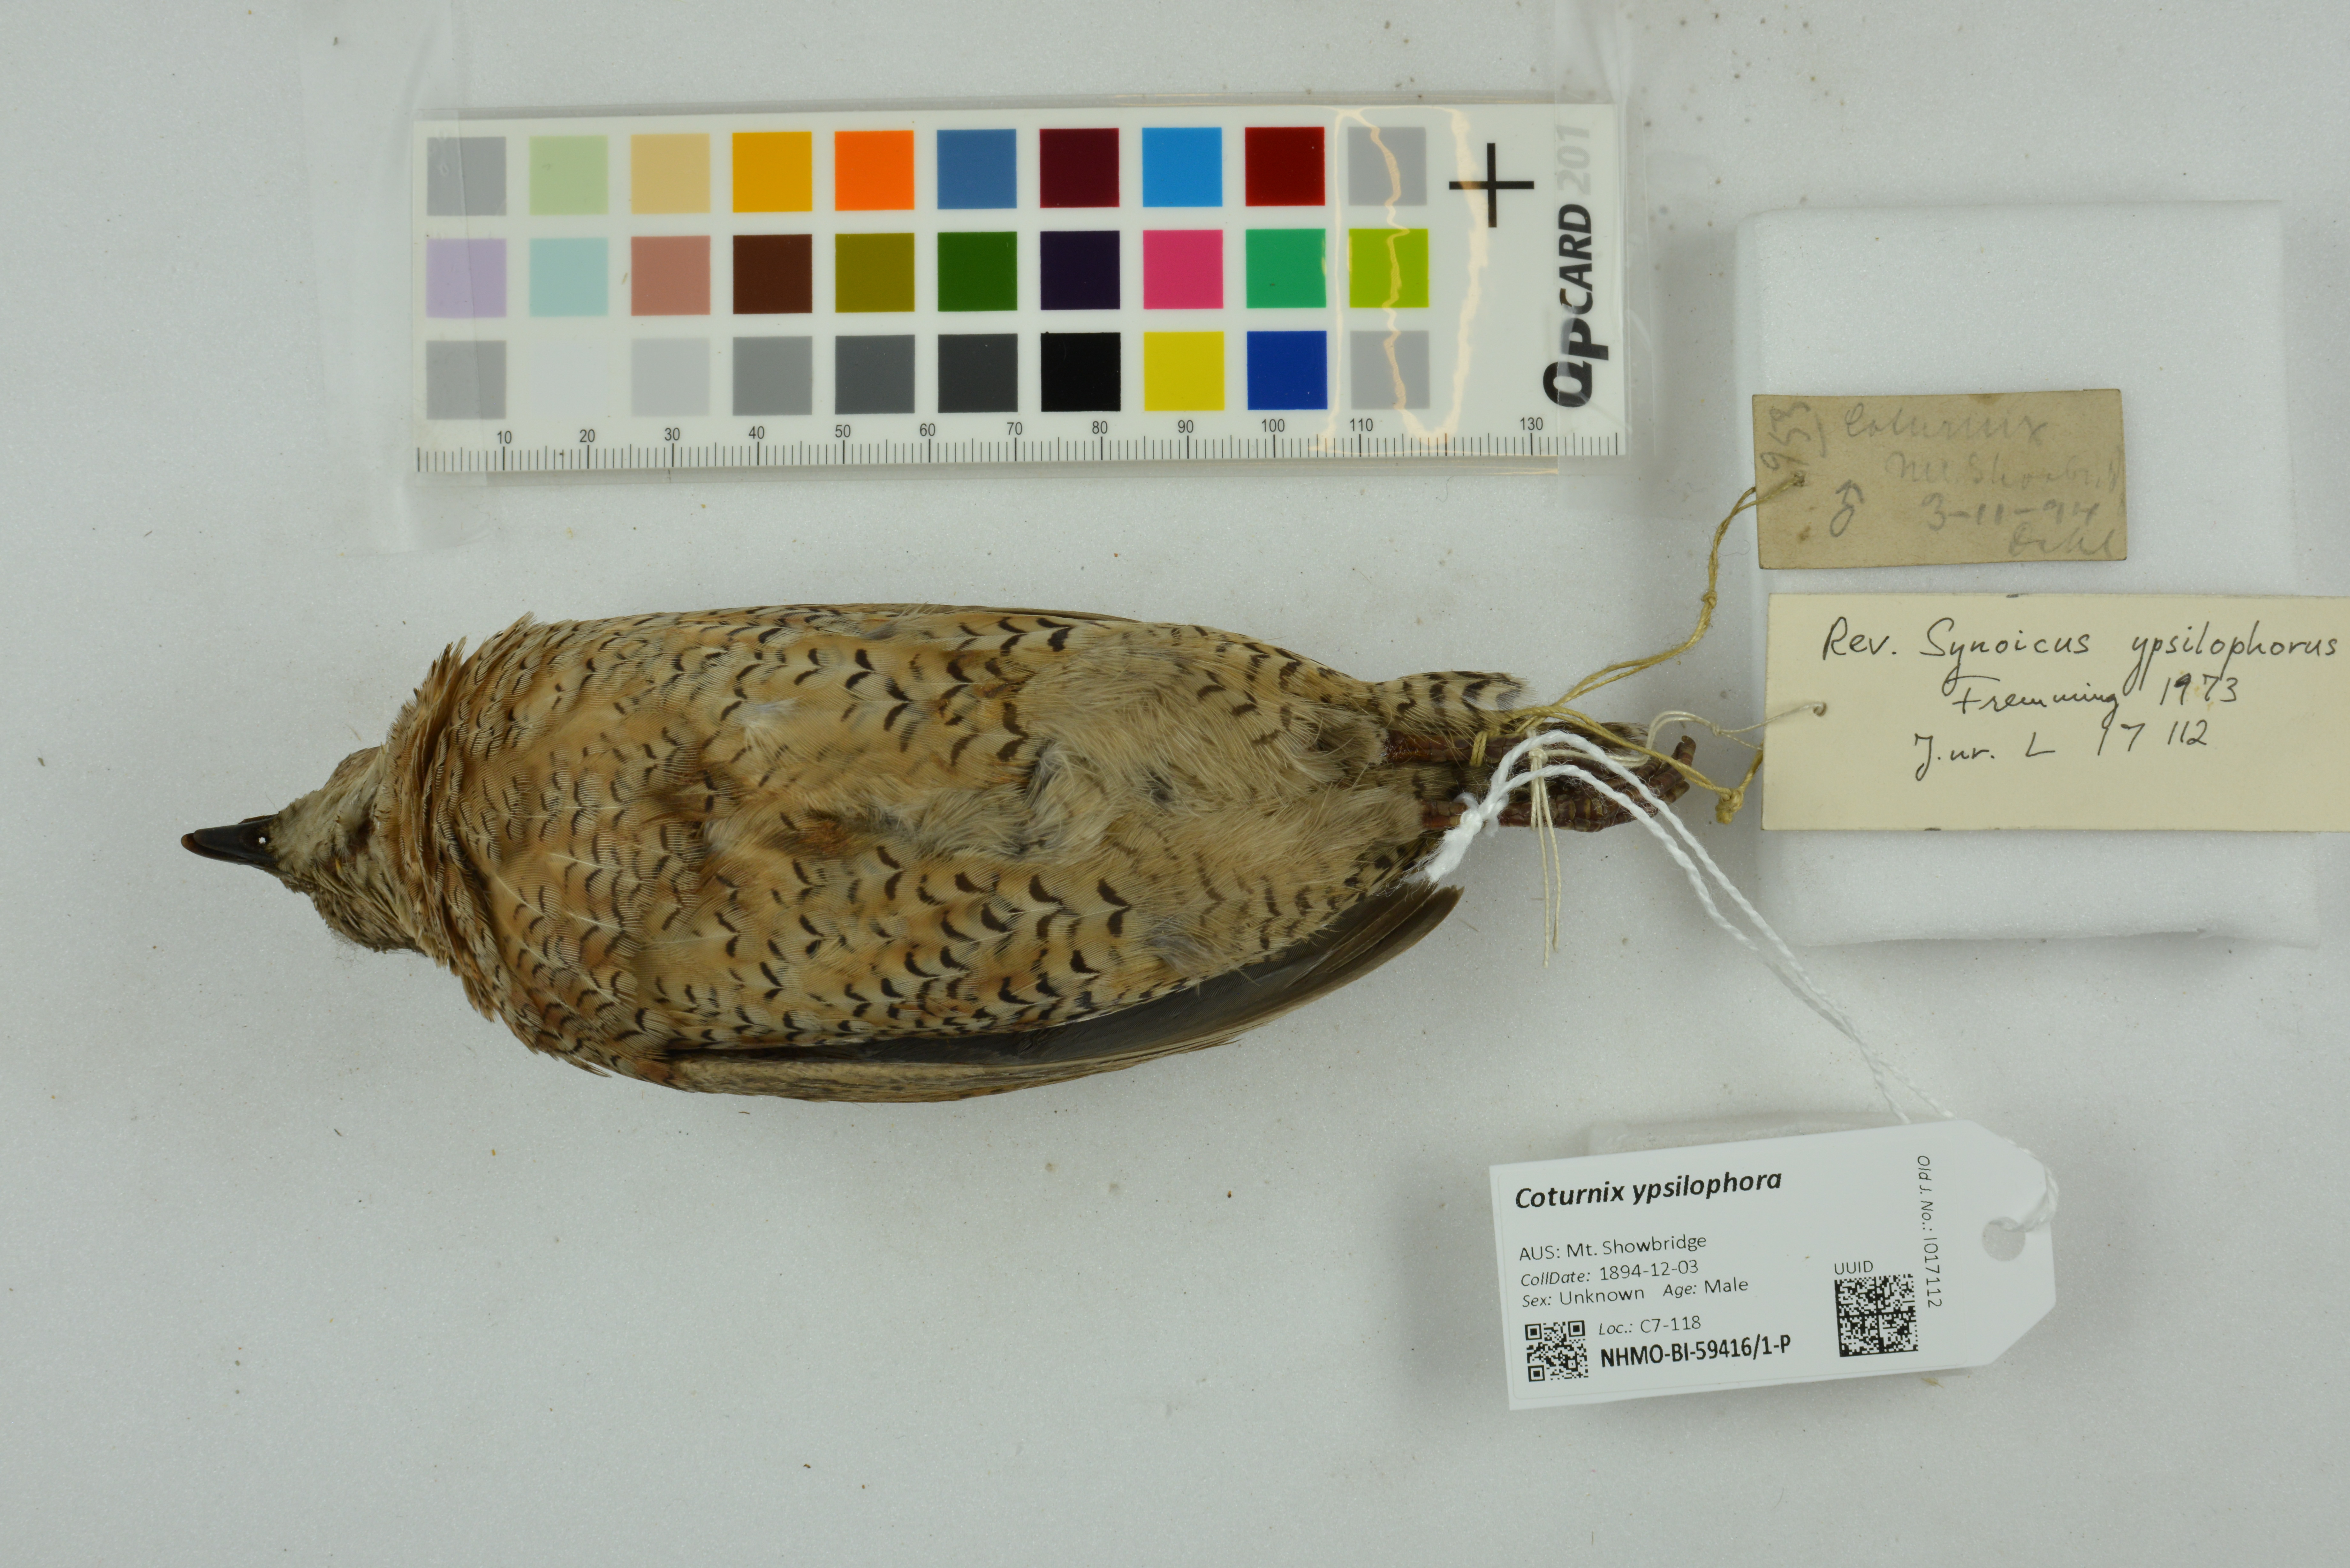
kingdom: Animalia
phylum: Chordata
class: Aves
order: Galliformes
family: Phasianidae
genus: Synoicus
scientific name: Synoicus ypsilophorus
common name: Brown quail
